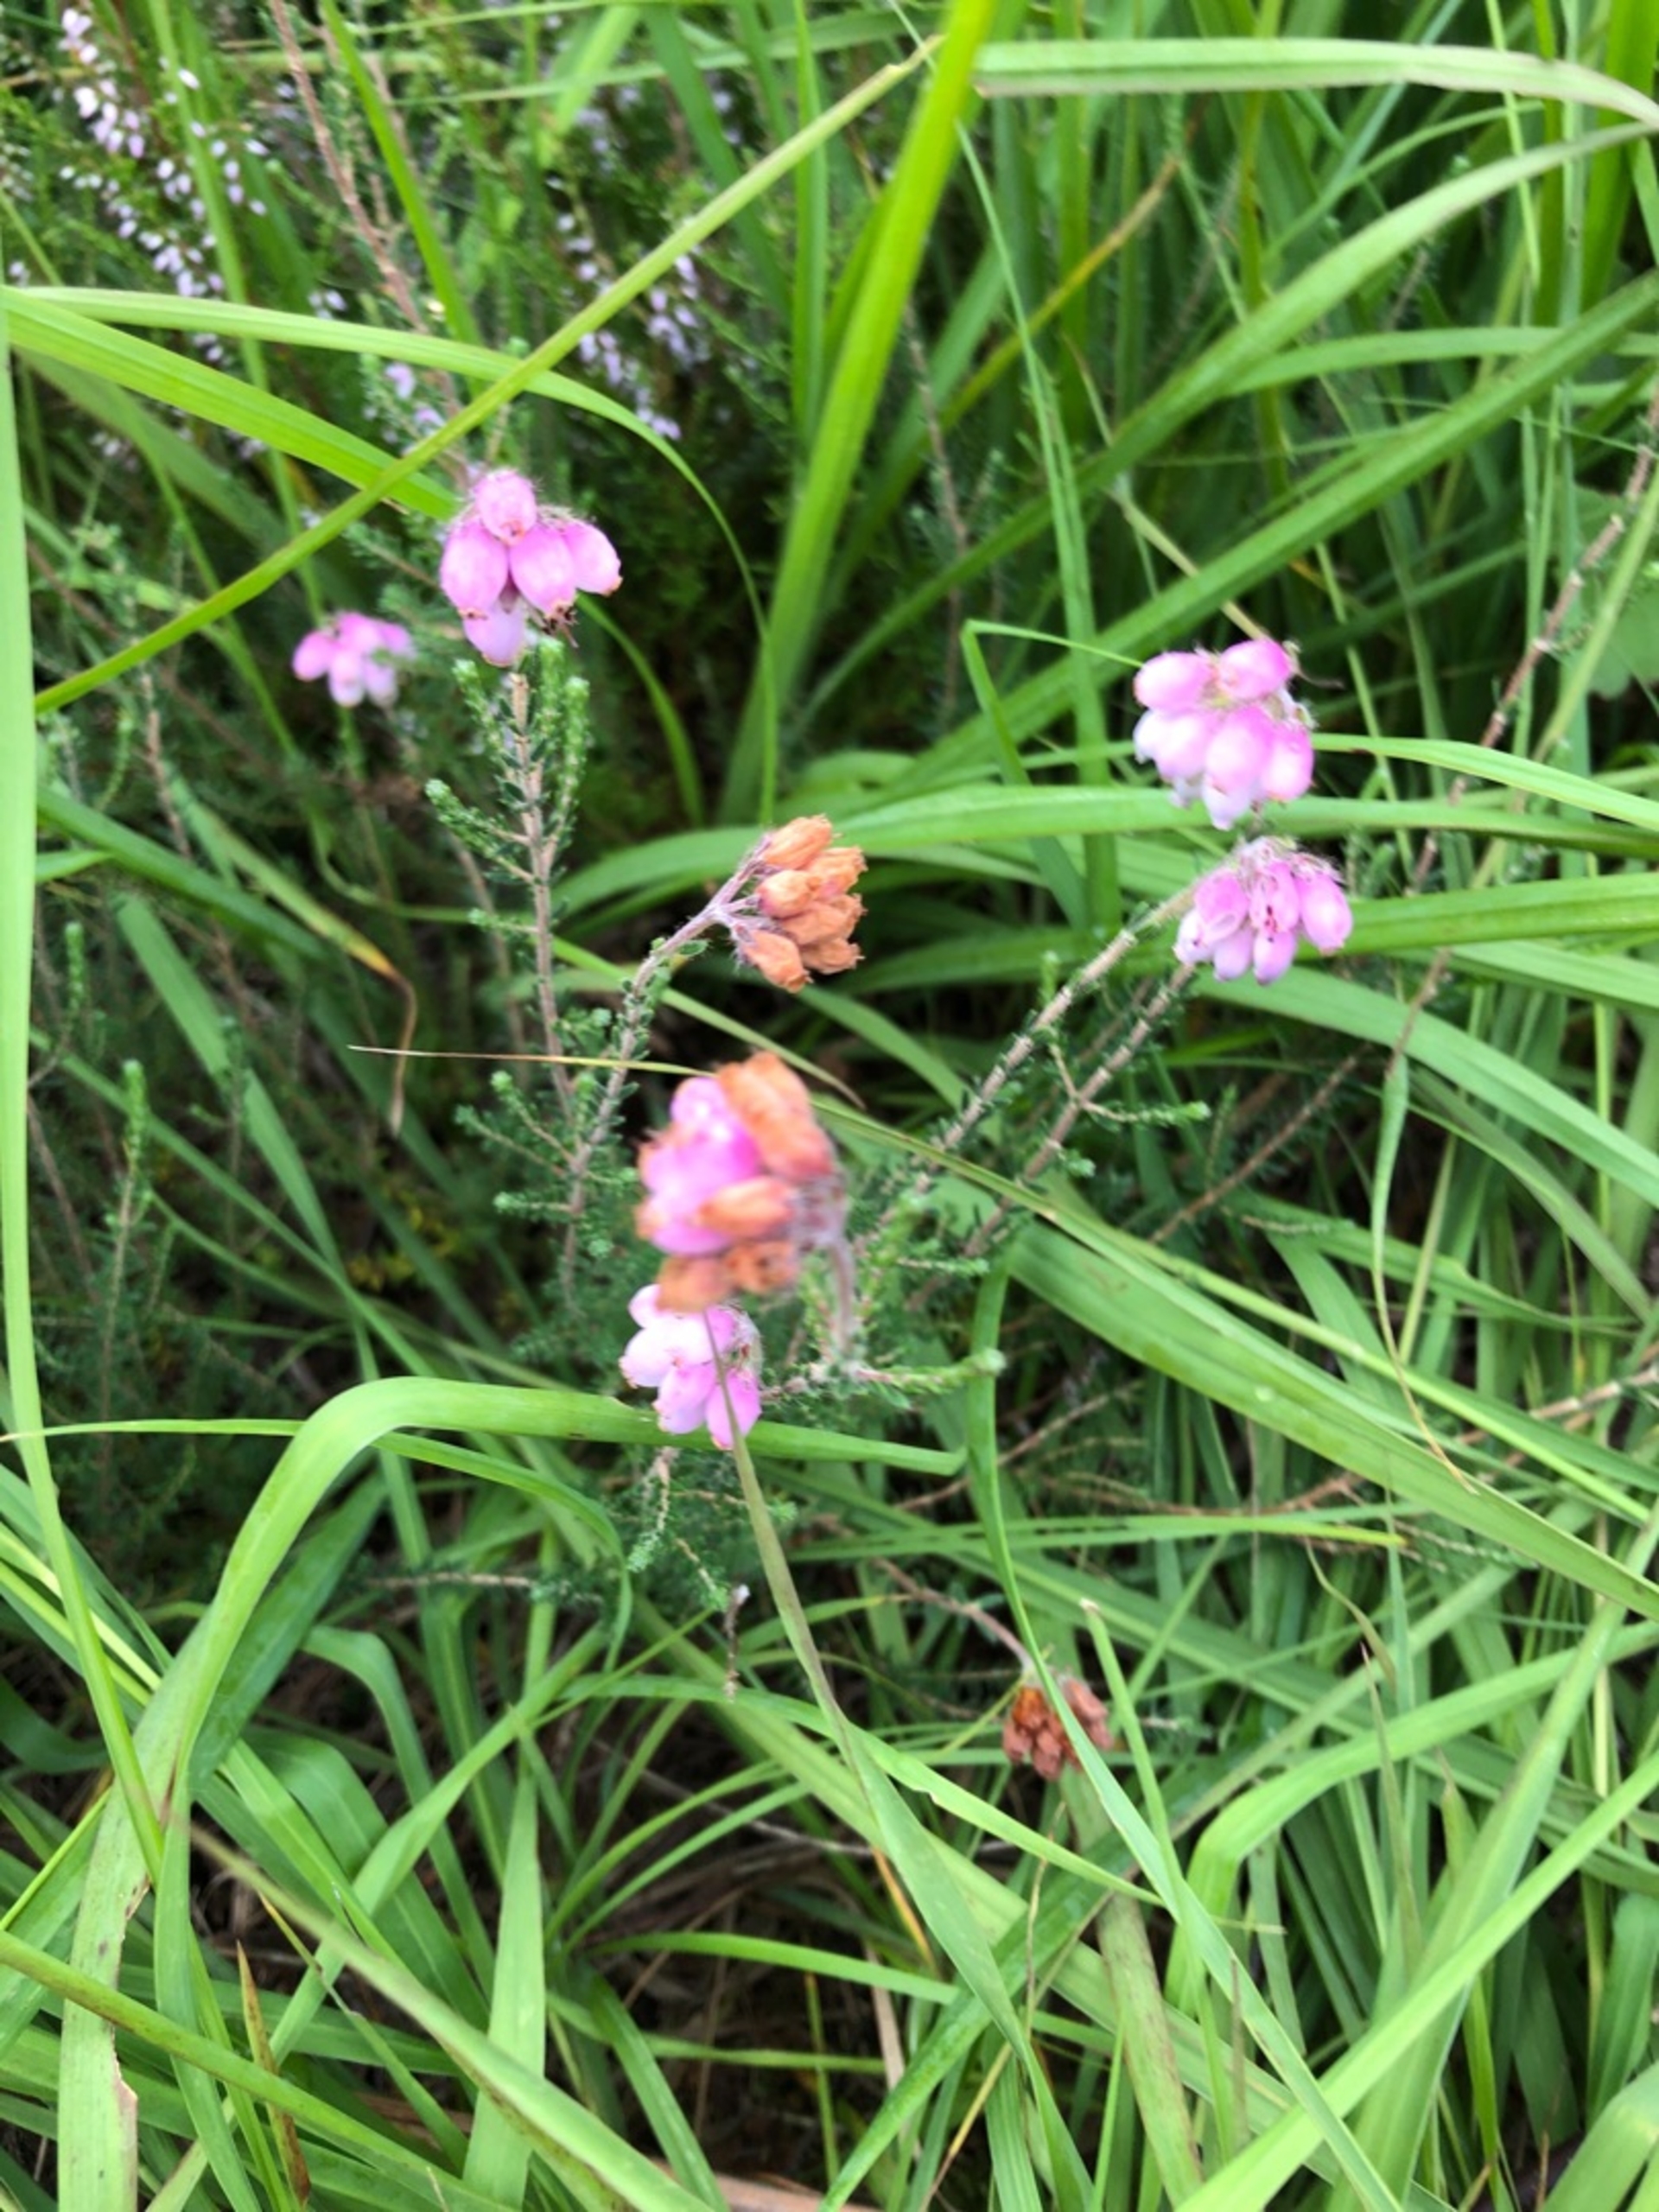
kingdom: Plantae
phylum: Tracheophyta
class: Magnoliopsida
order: Ericales
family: Ericaceae
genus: Erica
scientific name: Erica tetralix
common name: Klokkelyng
